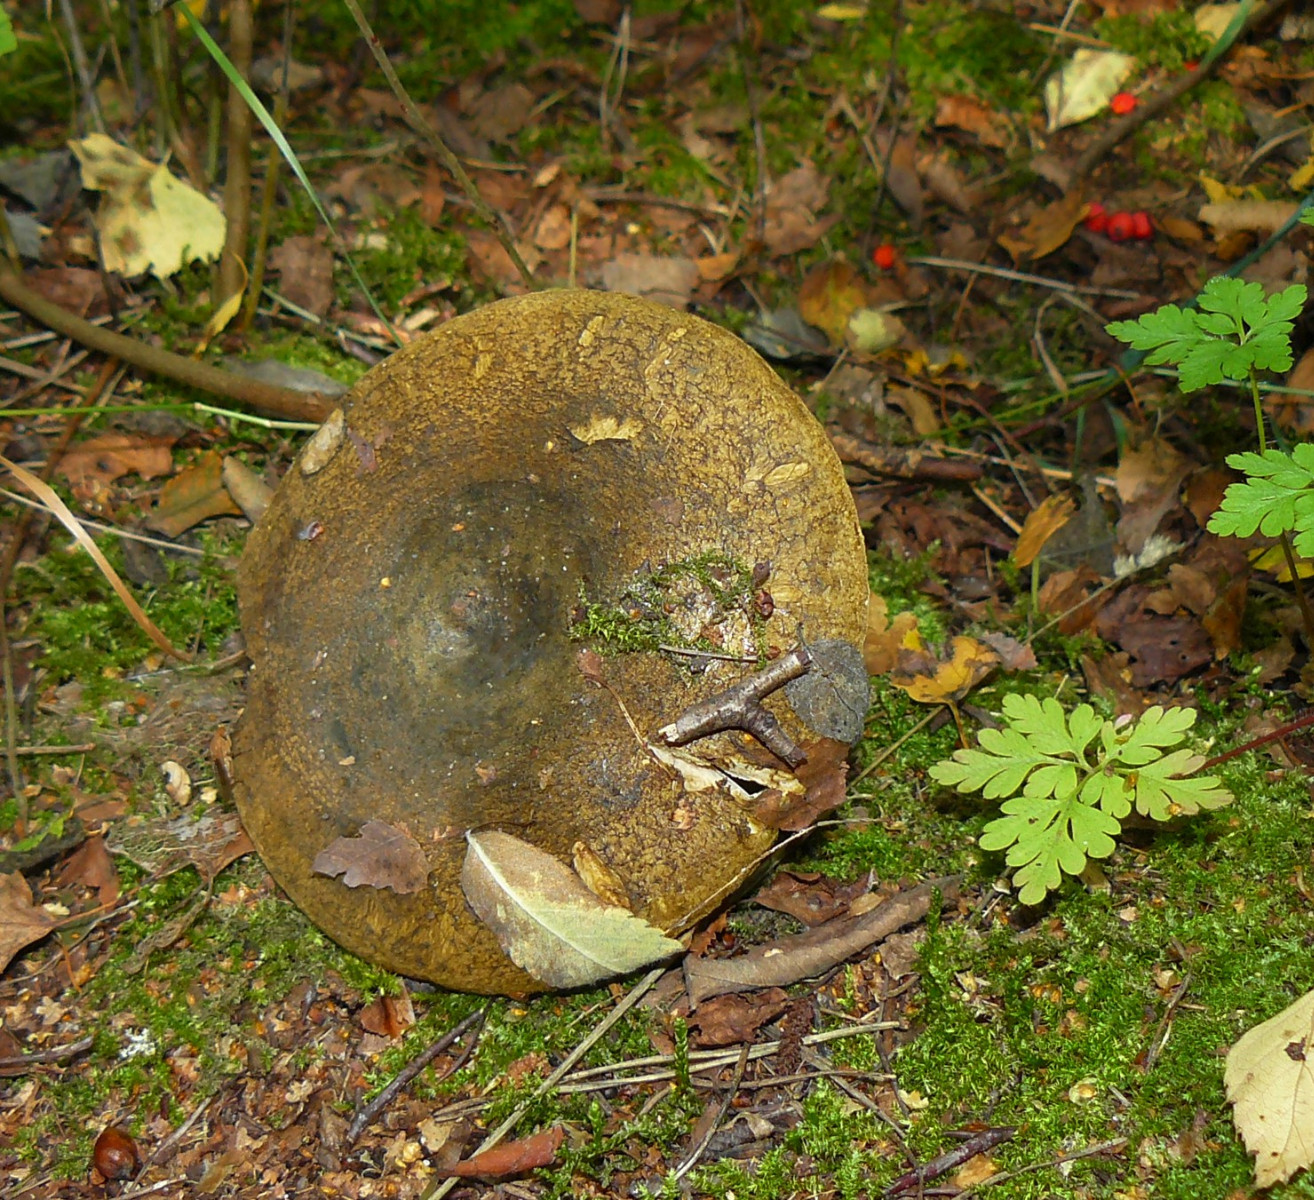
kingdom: Fungi
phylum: Basidiomycota
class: Agaricomycetes
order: Russulales
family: Russulaceae
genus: Lactarius
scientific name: Lactarius necator
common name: manddraber-mælkehat
